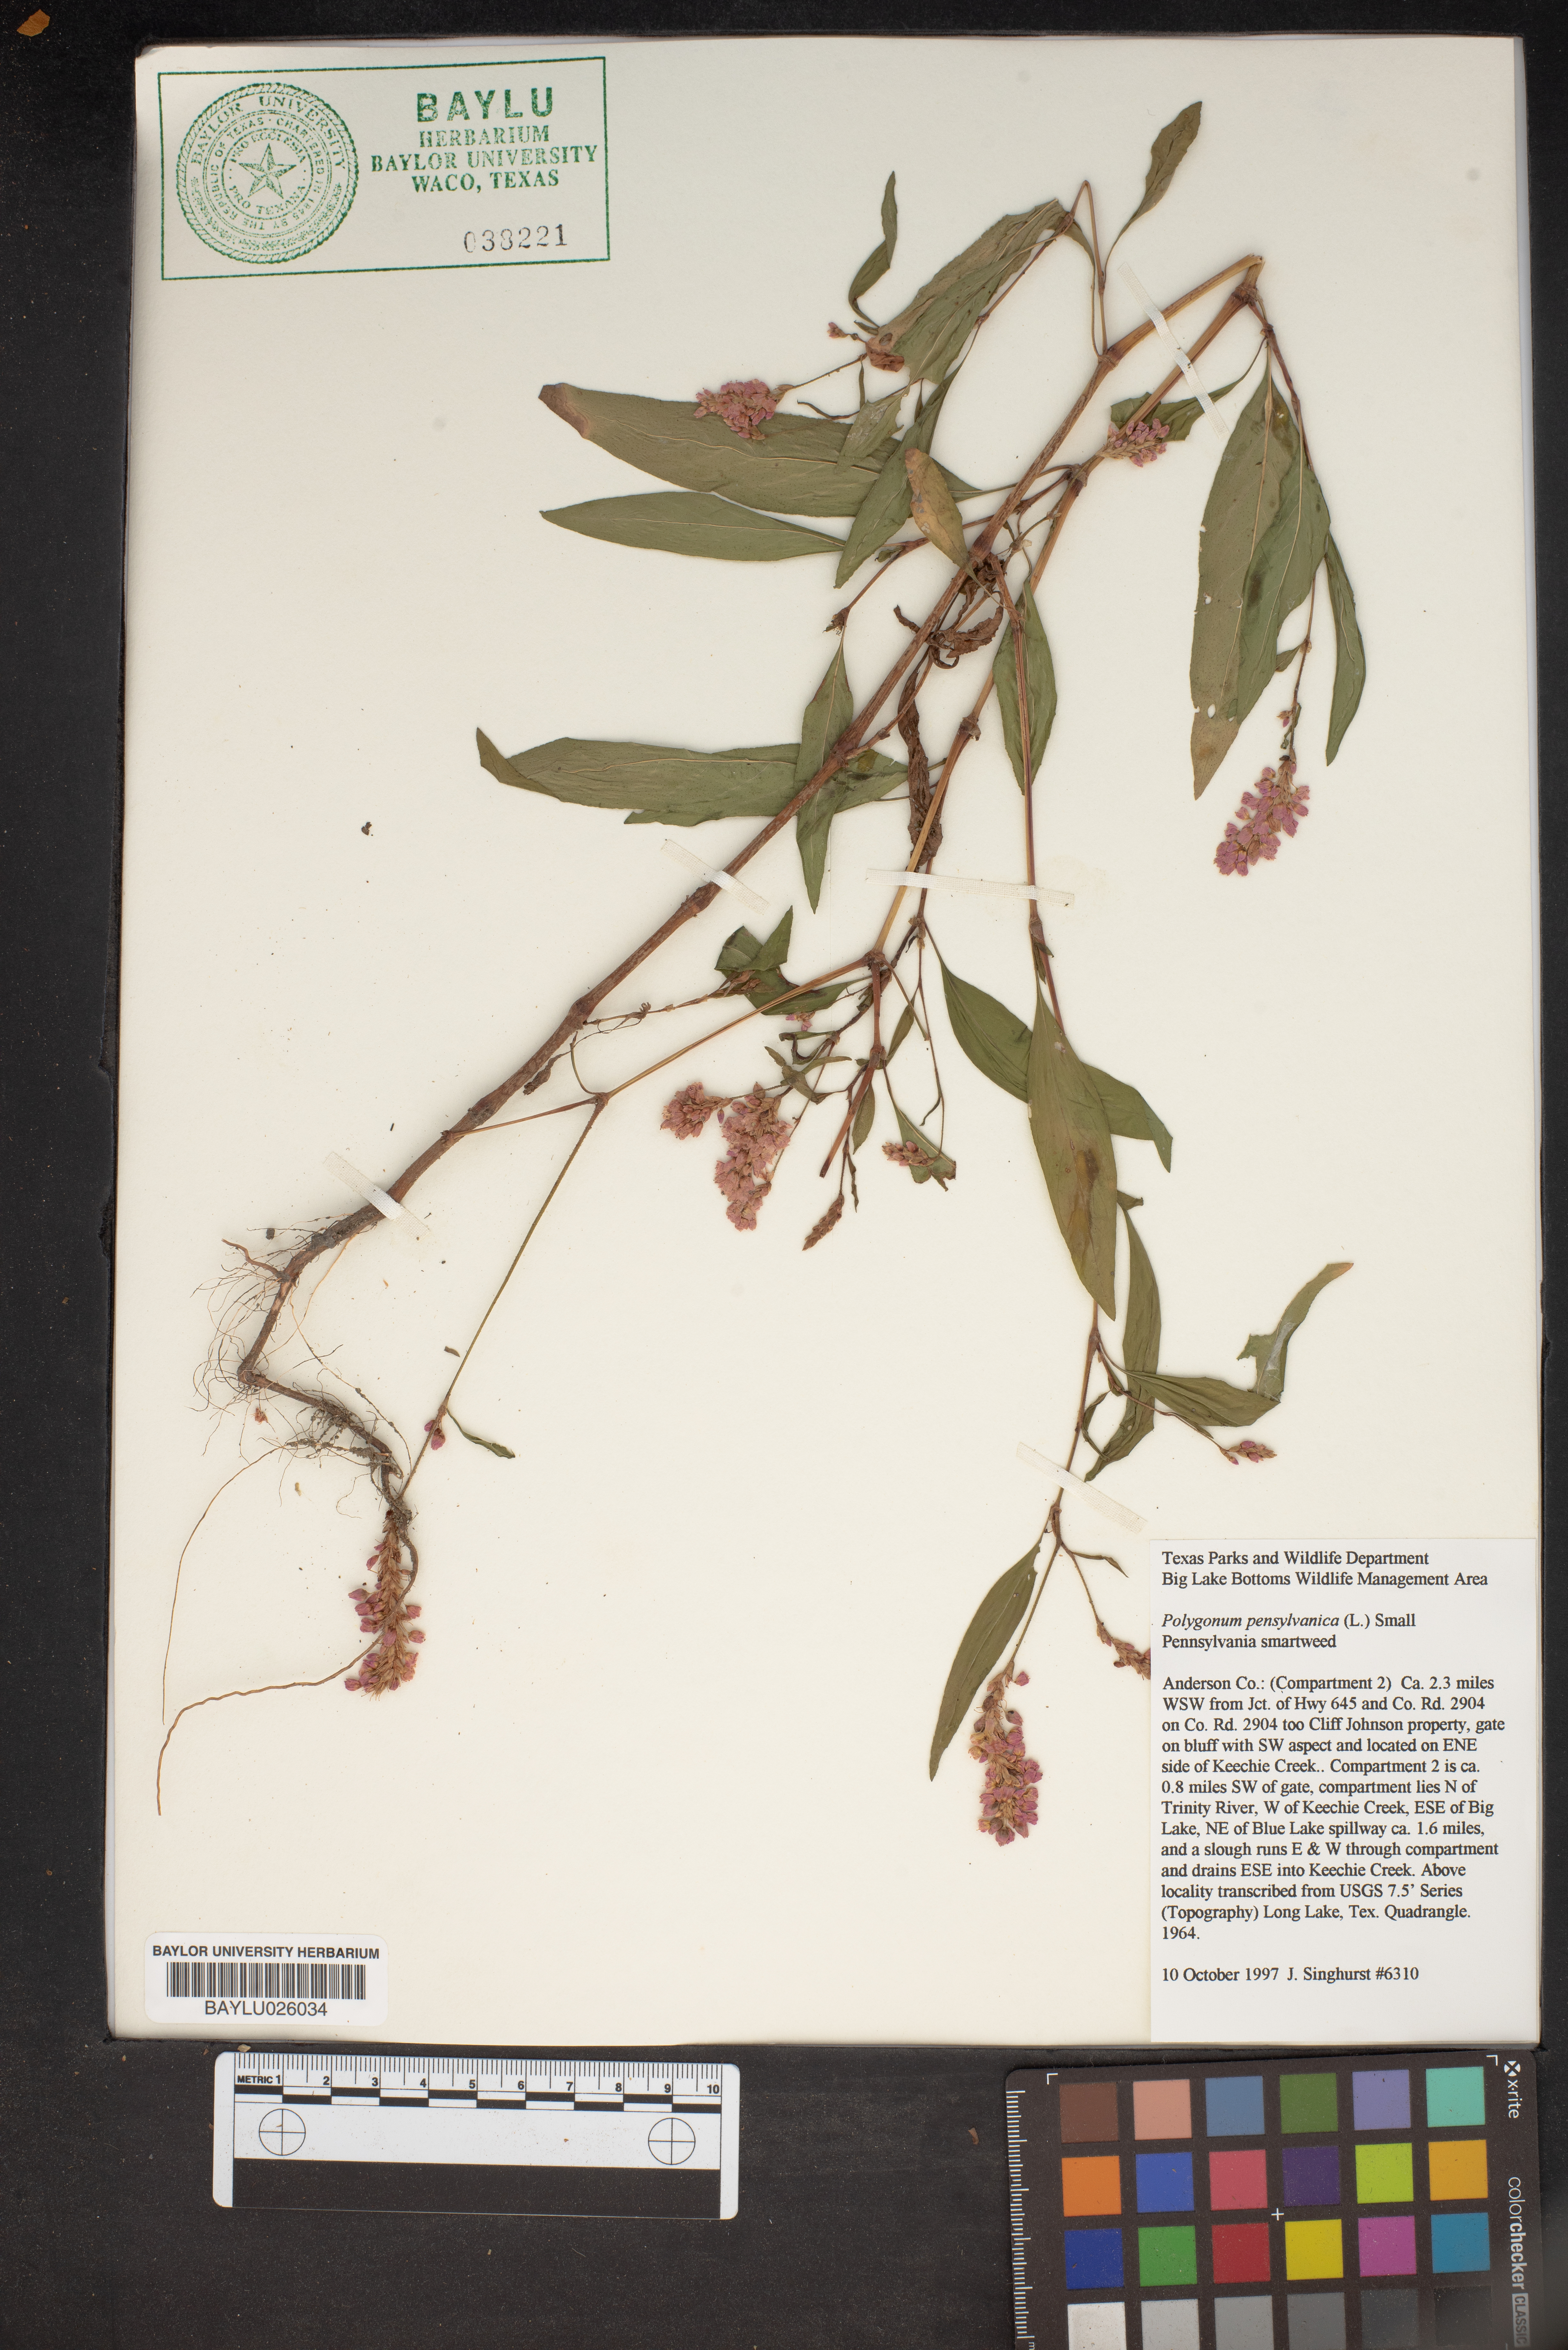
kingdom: Plantae
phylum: Tracheophyta
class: Magnoliopsida
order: Caryophyllales
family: Polygonaceae
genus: Persicaria
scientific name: Persicaria pensylvanica
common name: Pinkweed
